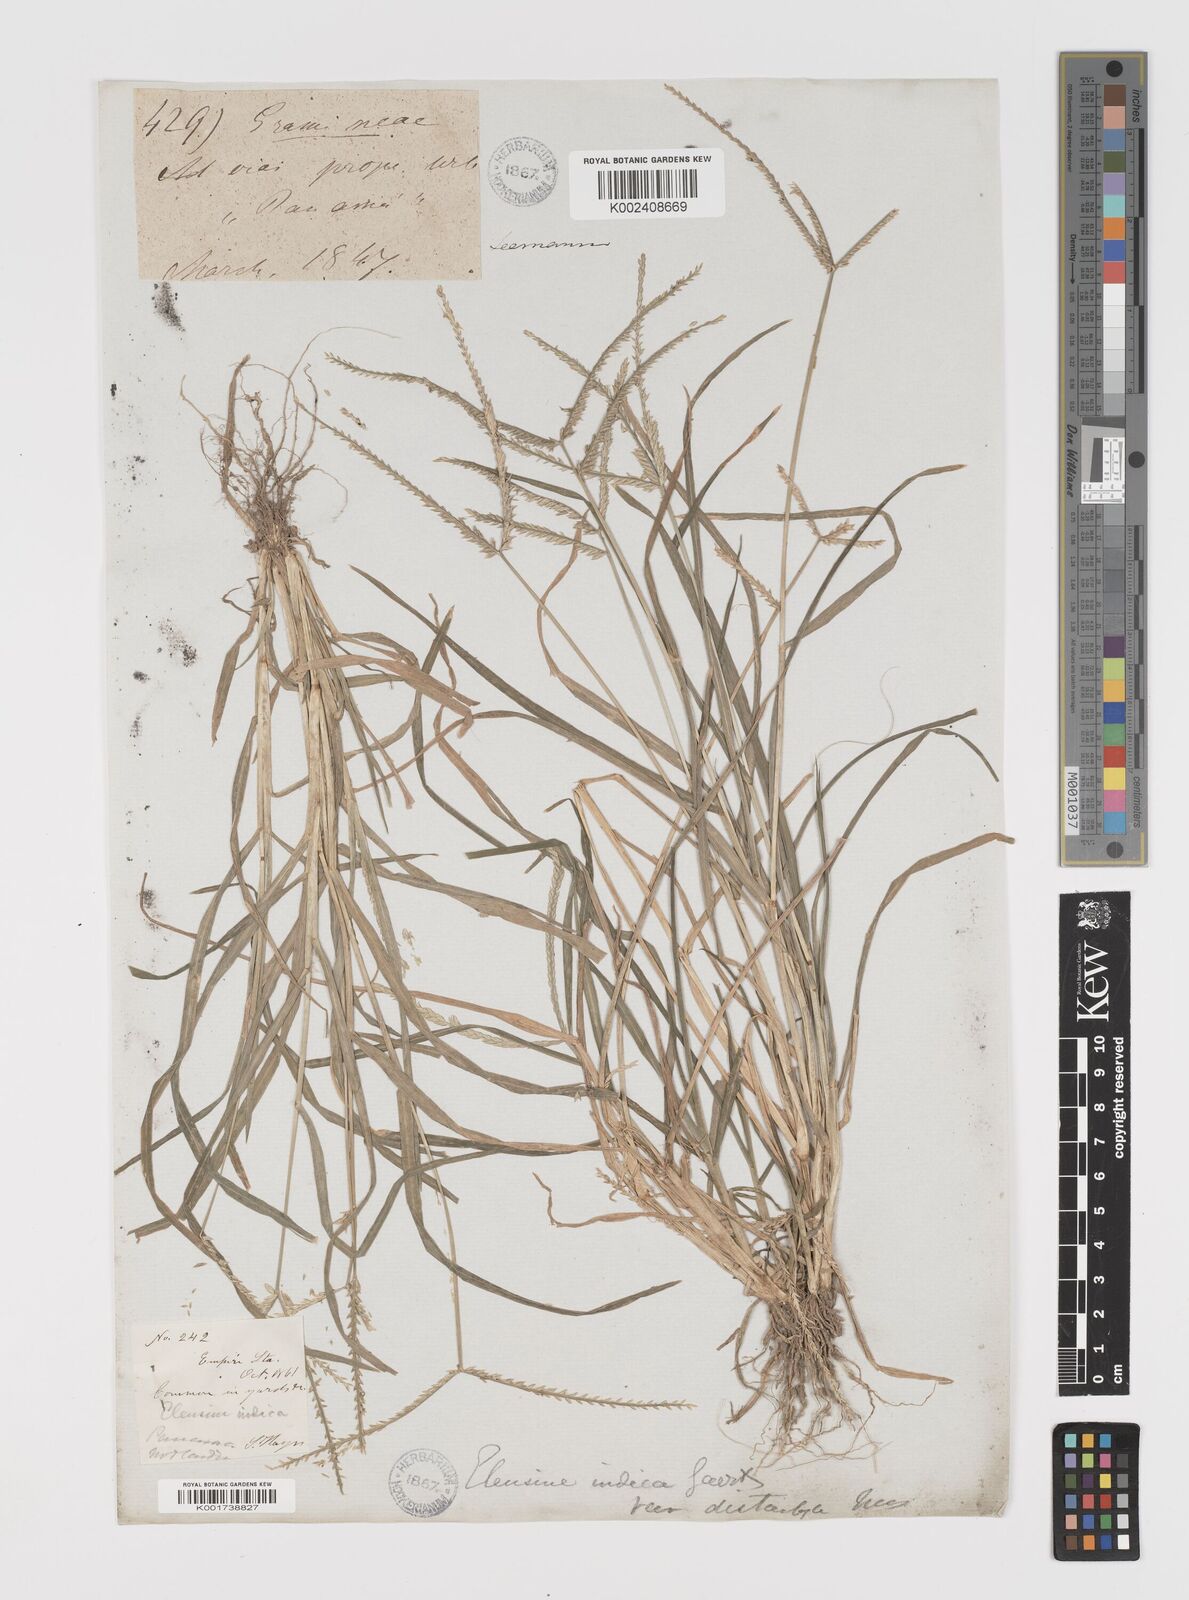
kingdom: Plantae
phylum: Tracheophyta
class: Liliopsida
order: Poales
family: Poaceae
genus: Eleusine
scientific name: Eleusine indica
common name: Yard-grass
